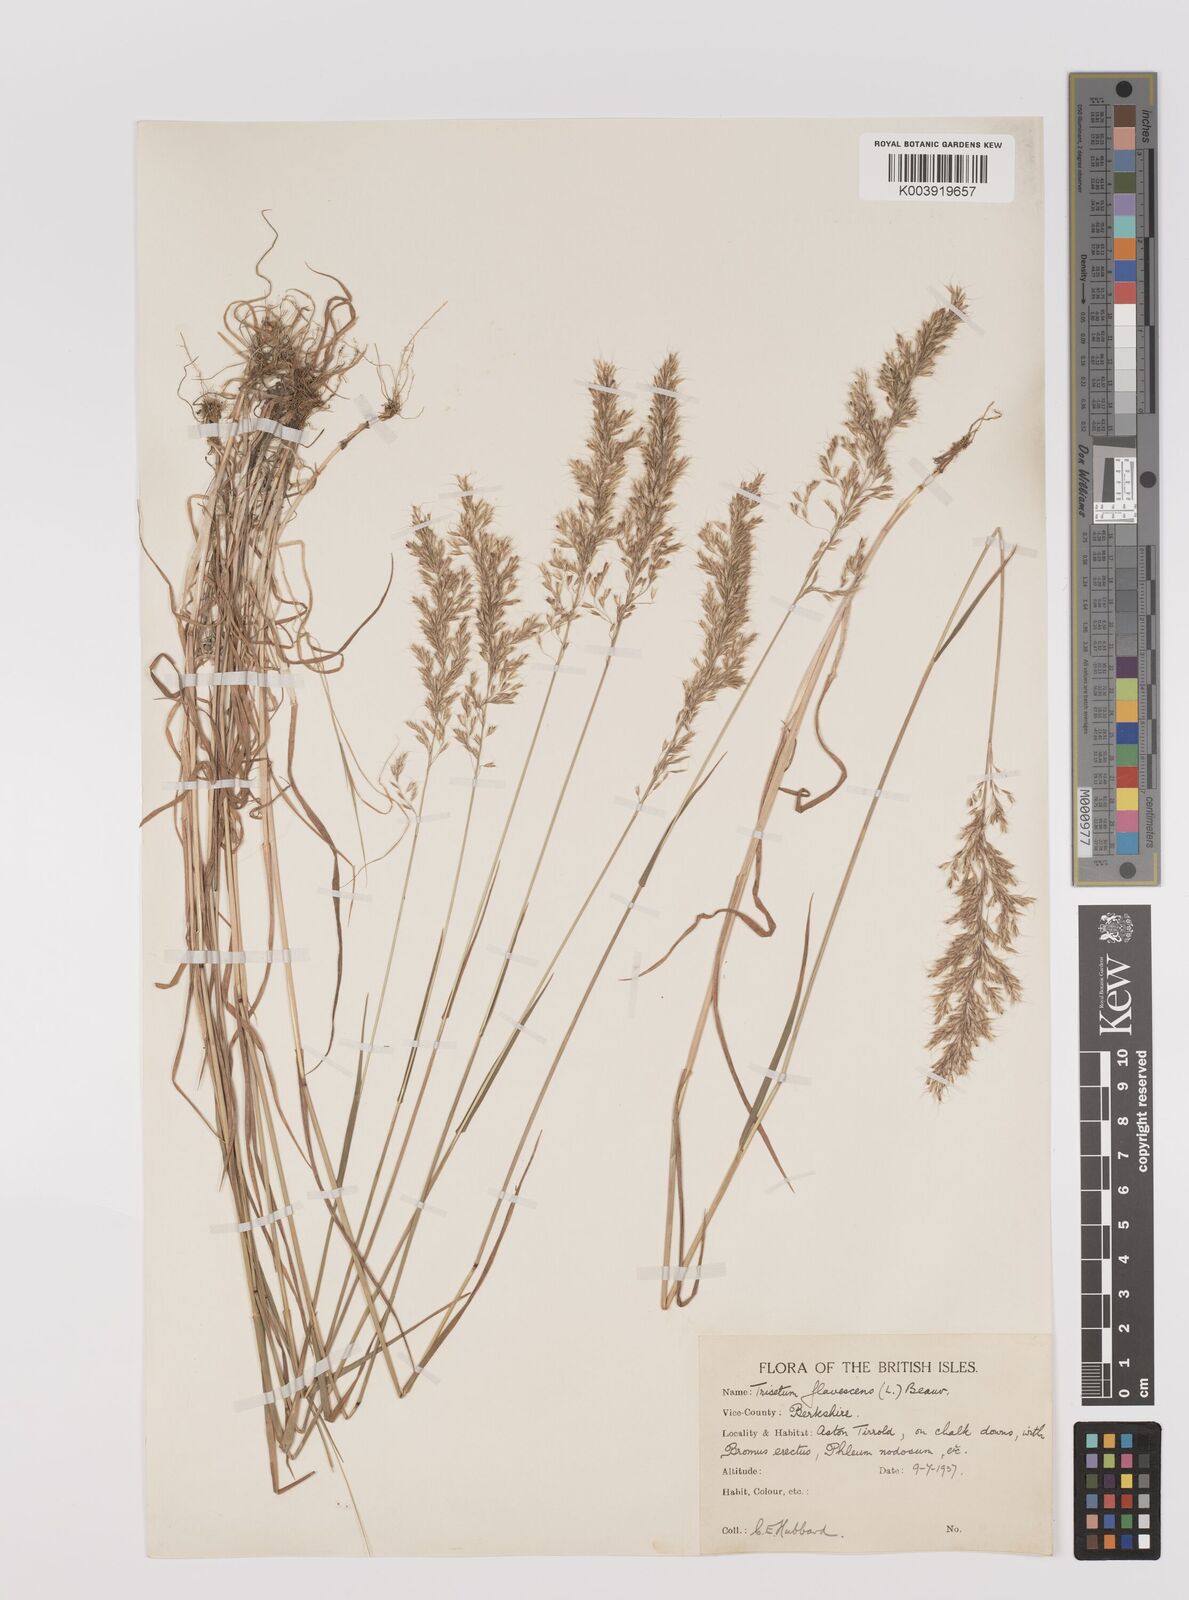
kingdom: Plantae
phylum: Tracheophyta
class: Liliopsida
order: Poales
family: Poaceae
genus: Trisetum
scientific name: Trisetum flavescens
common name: Yellow oat-grass
